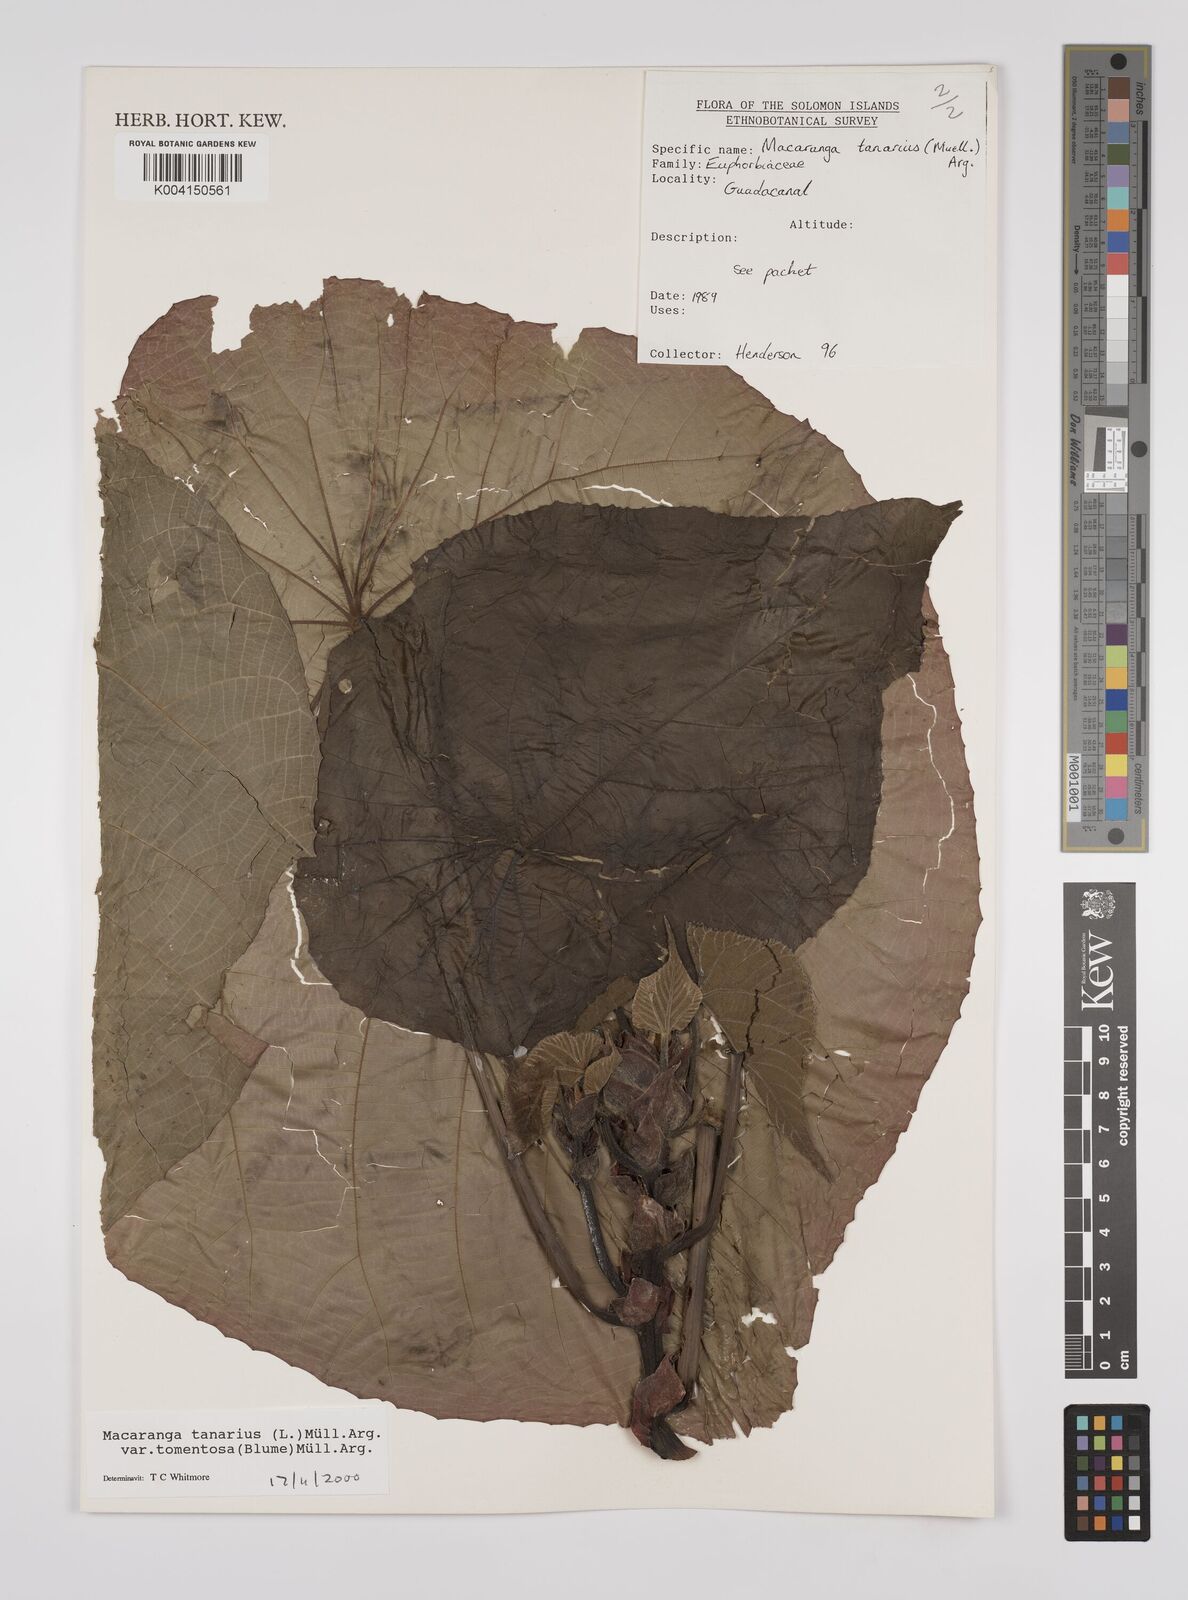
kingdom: Plantae
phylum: Tracheophyta
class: Magnoliopsida
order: Malpighiales
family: Euphorbiaceae
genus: Macaranga
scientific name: Macaranga tanarius
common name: Parasol leaf tree
